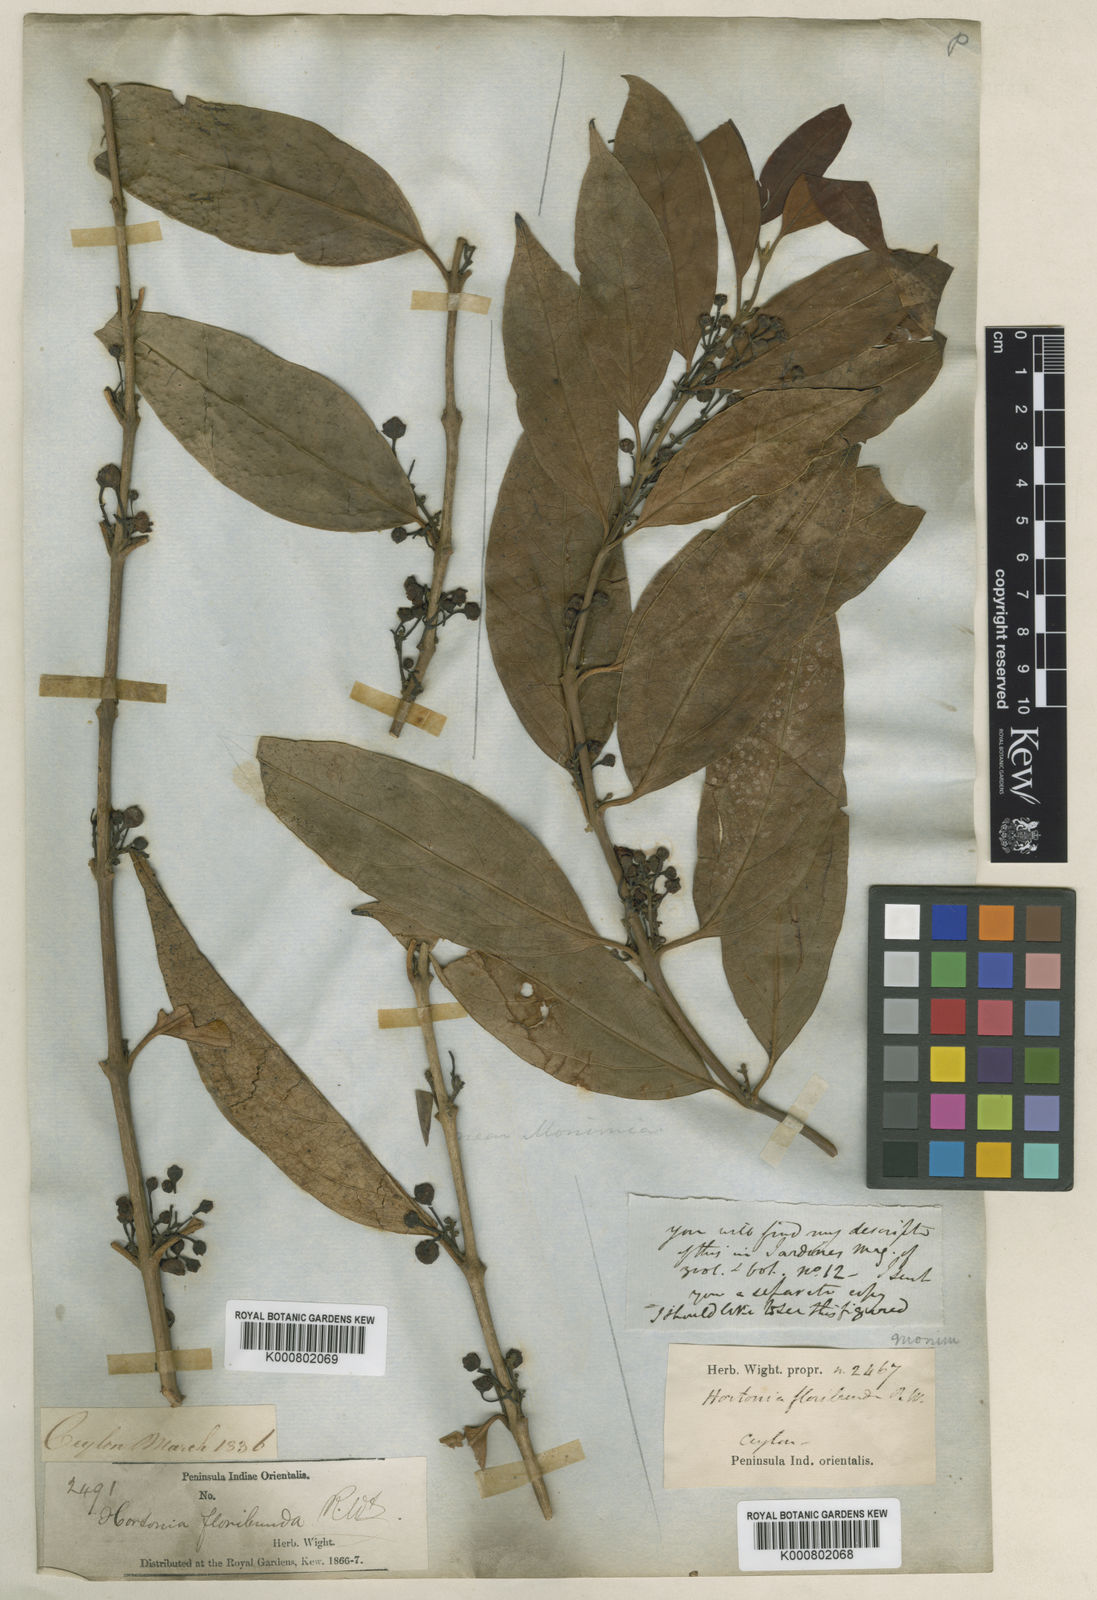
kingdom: Plantae
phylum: Tracheophyta
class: Magnoliopsida
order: Laurales
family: Monimiaceae
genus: Hortonia
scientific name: Hortonia floribunda
